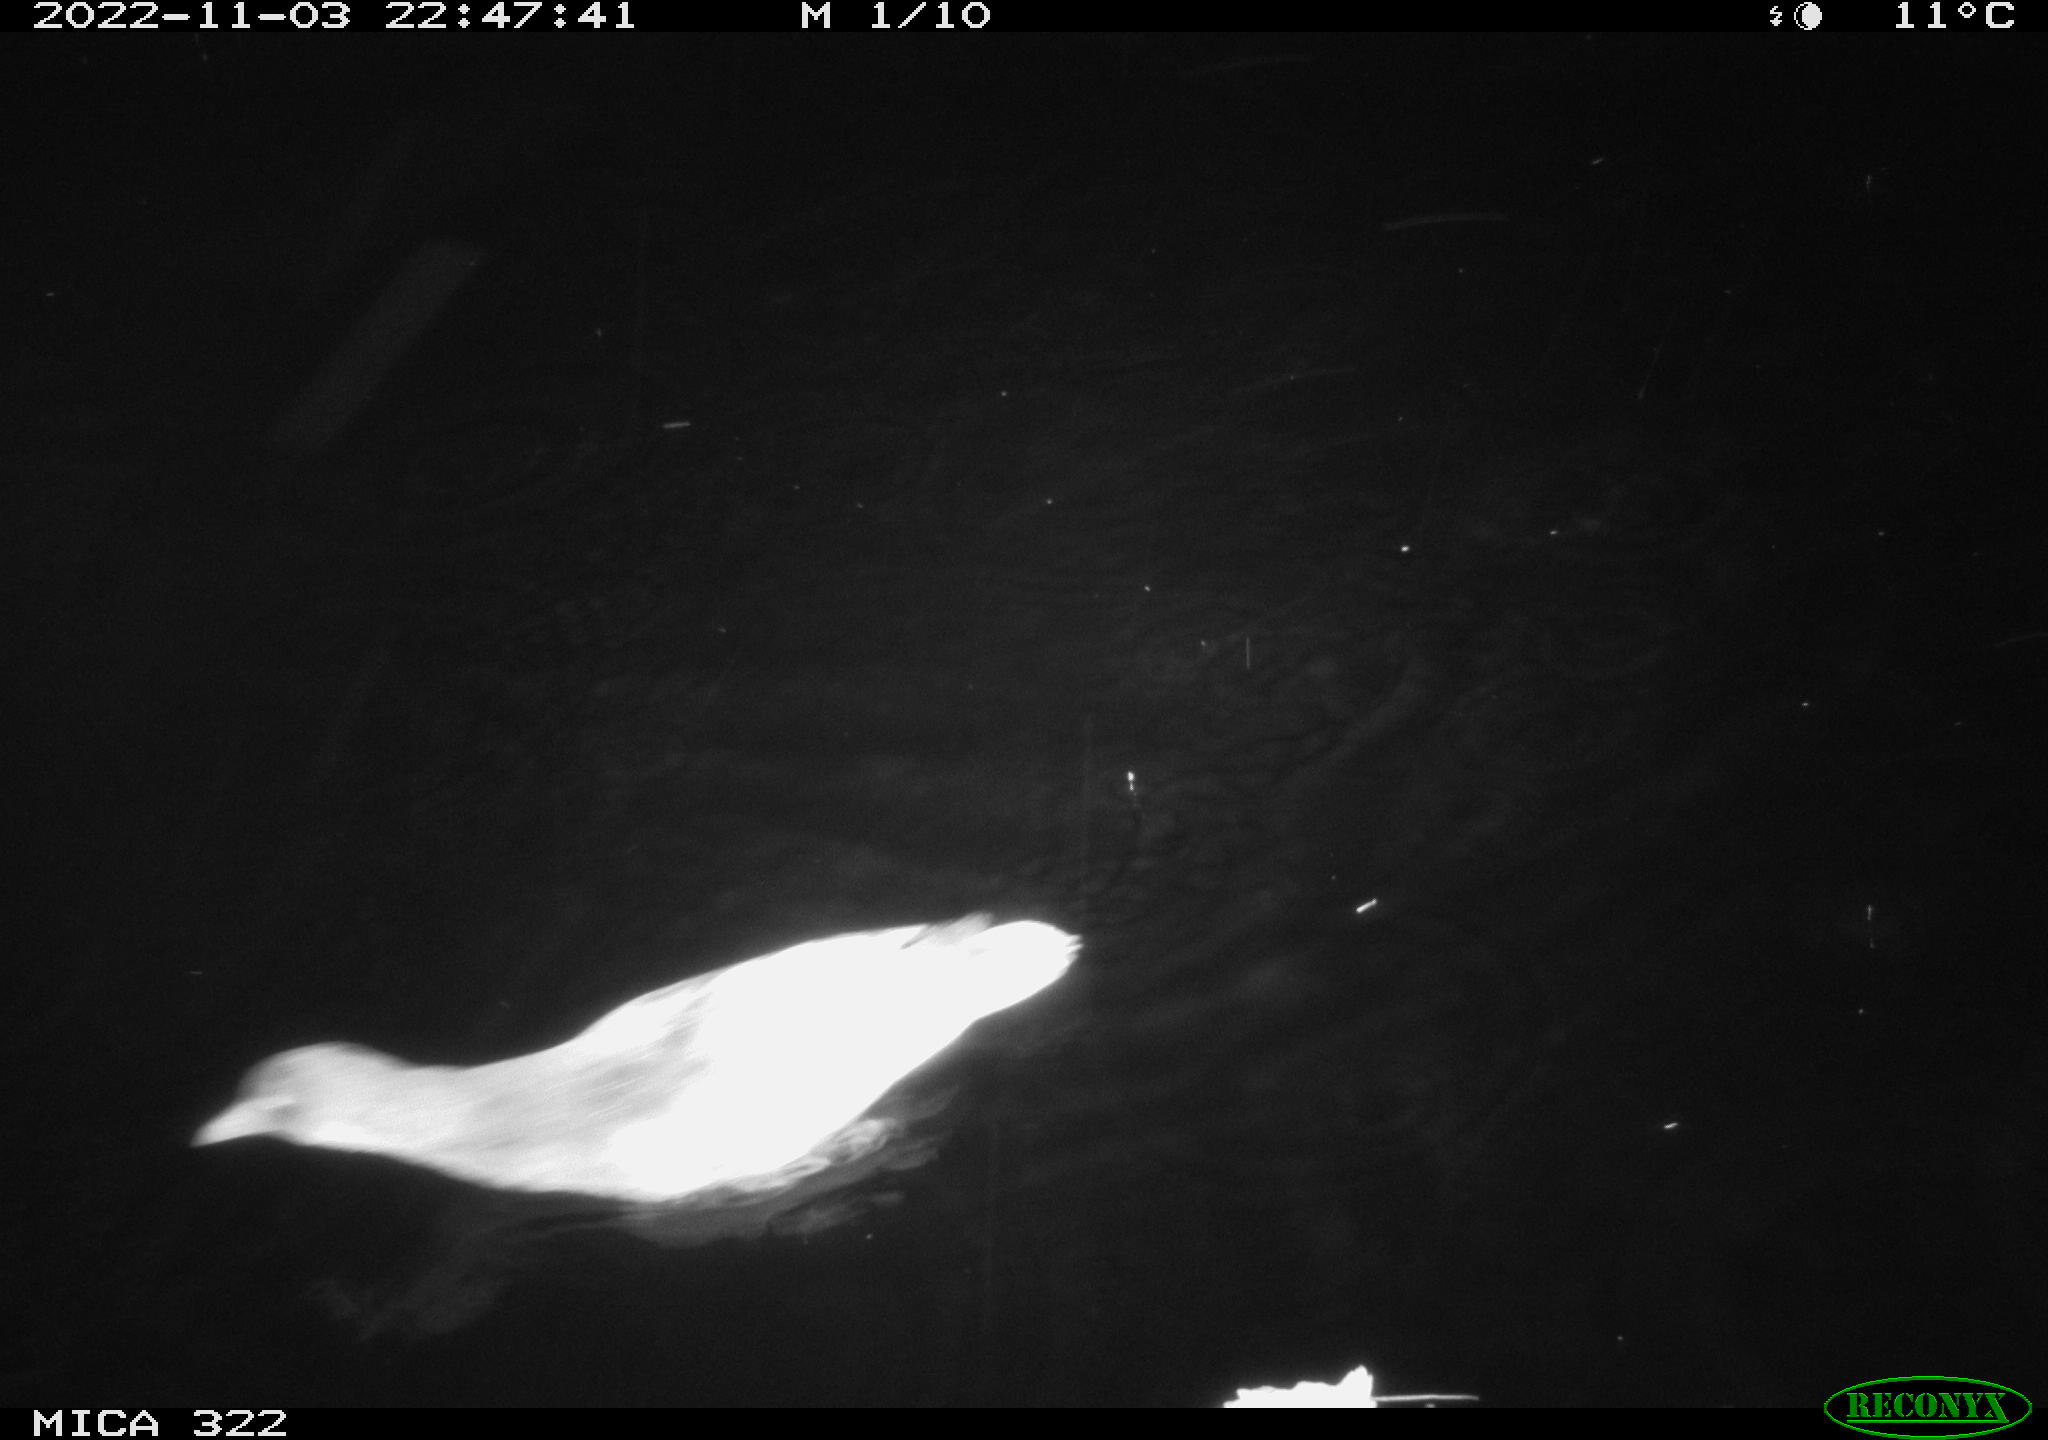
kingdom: Animalia
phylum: Chordata
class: Aves
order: Anseriformes
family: Anatidae
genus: Anas
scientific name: Anas
